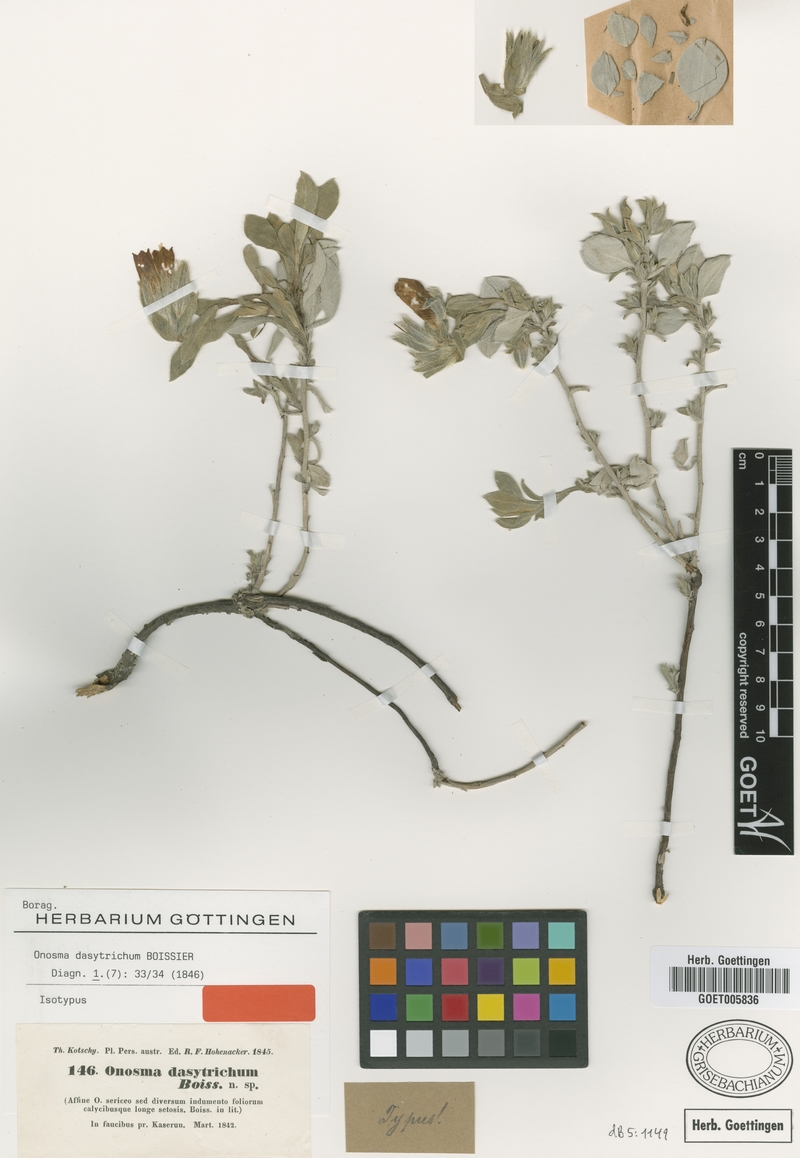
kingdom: Plantae
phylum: Tracheophyta
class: Magnoliopsida
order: Boraginales
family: Boraginaceae
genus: Onosma
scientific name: Onosma dasytricha
